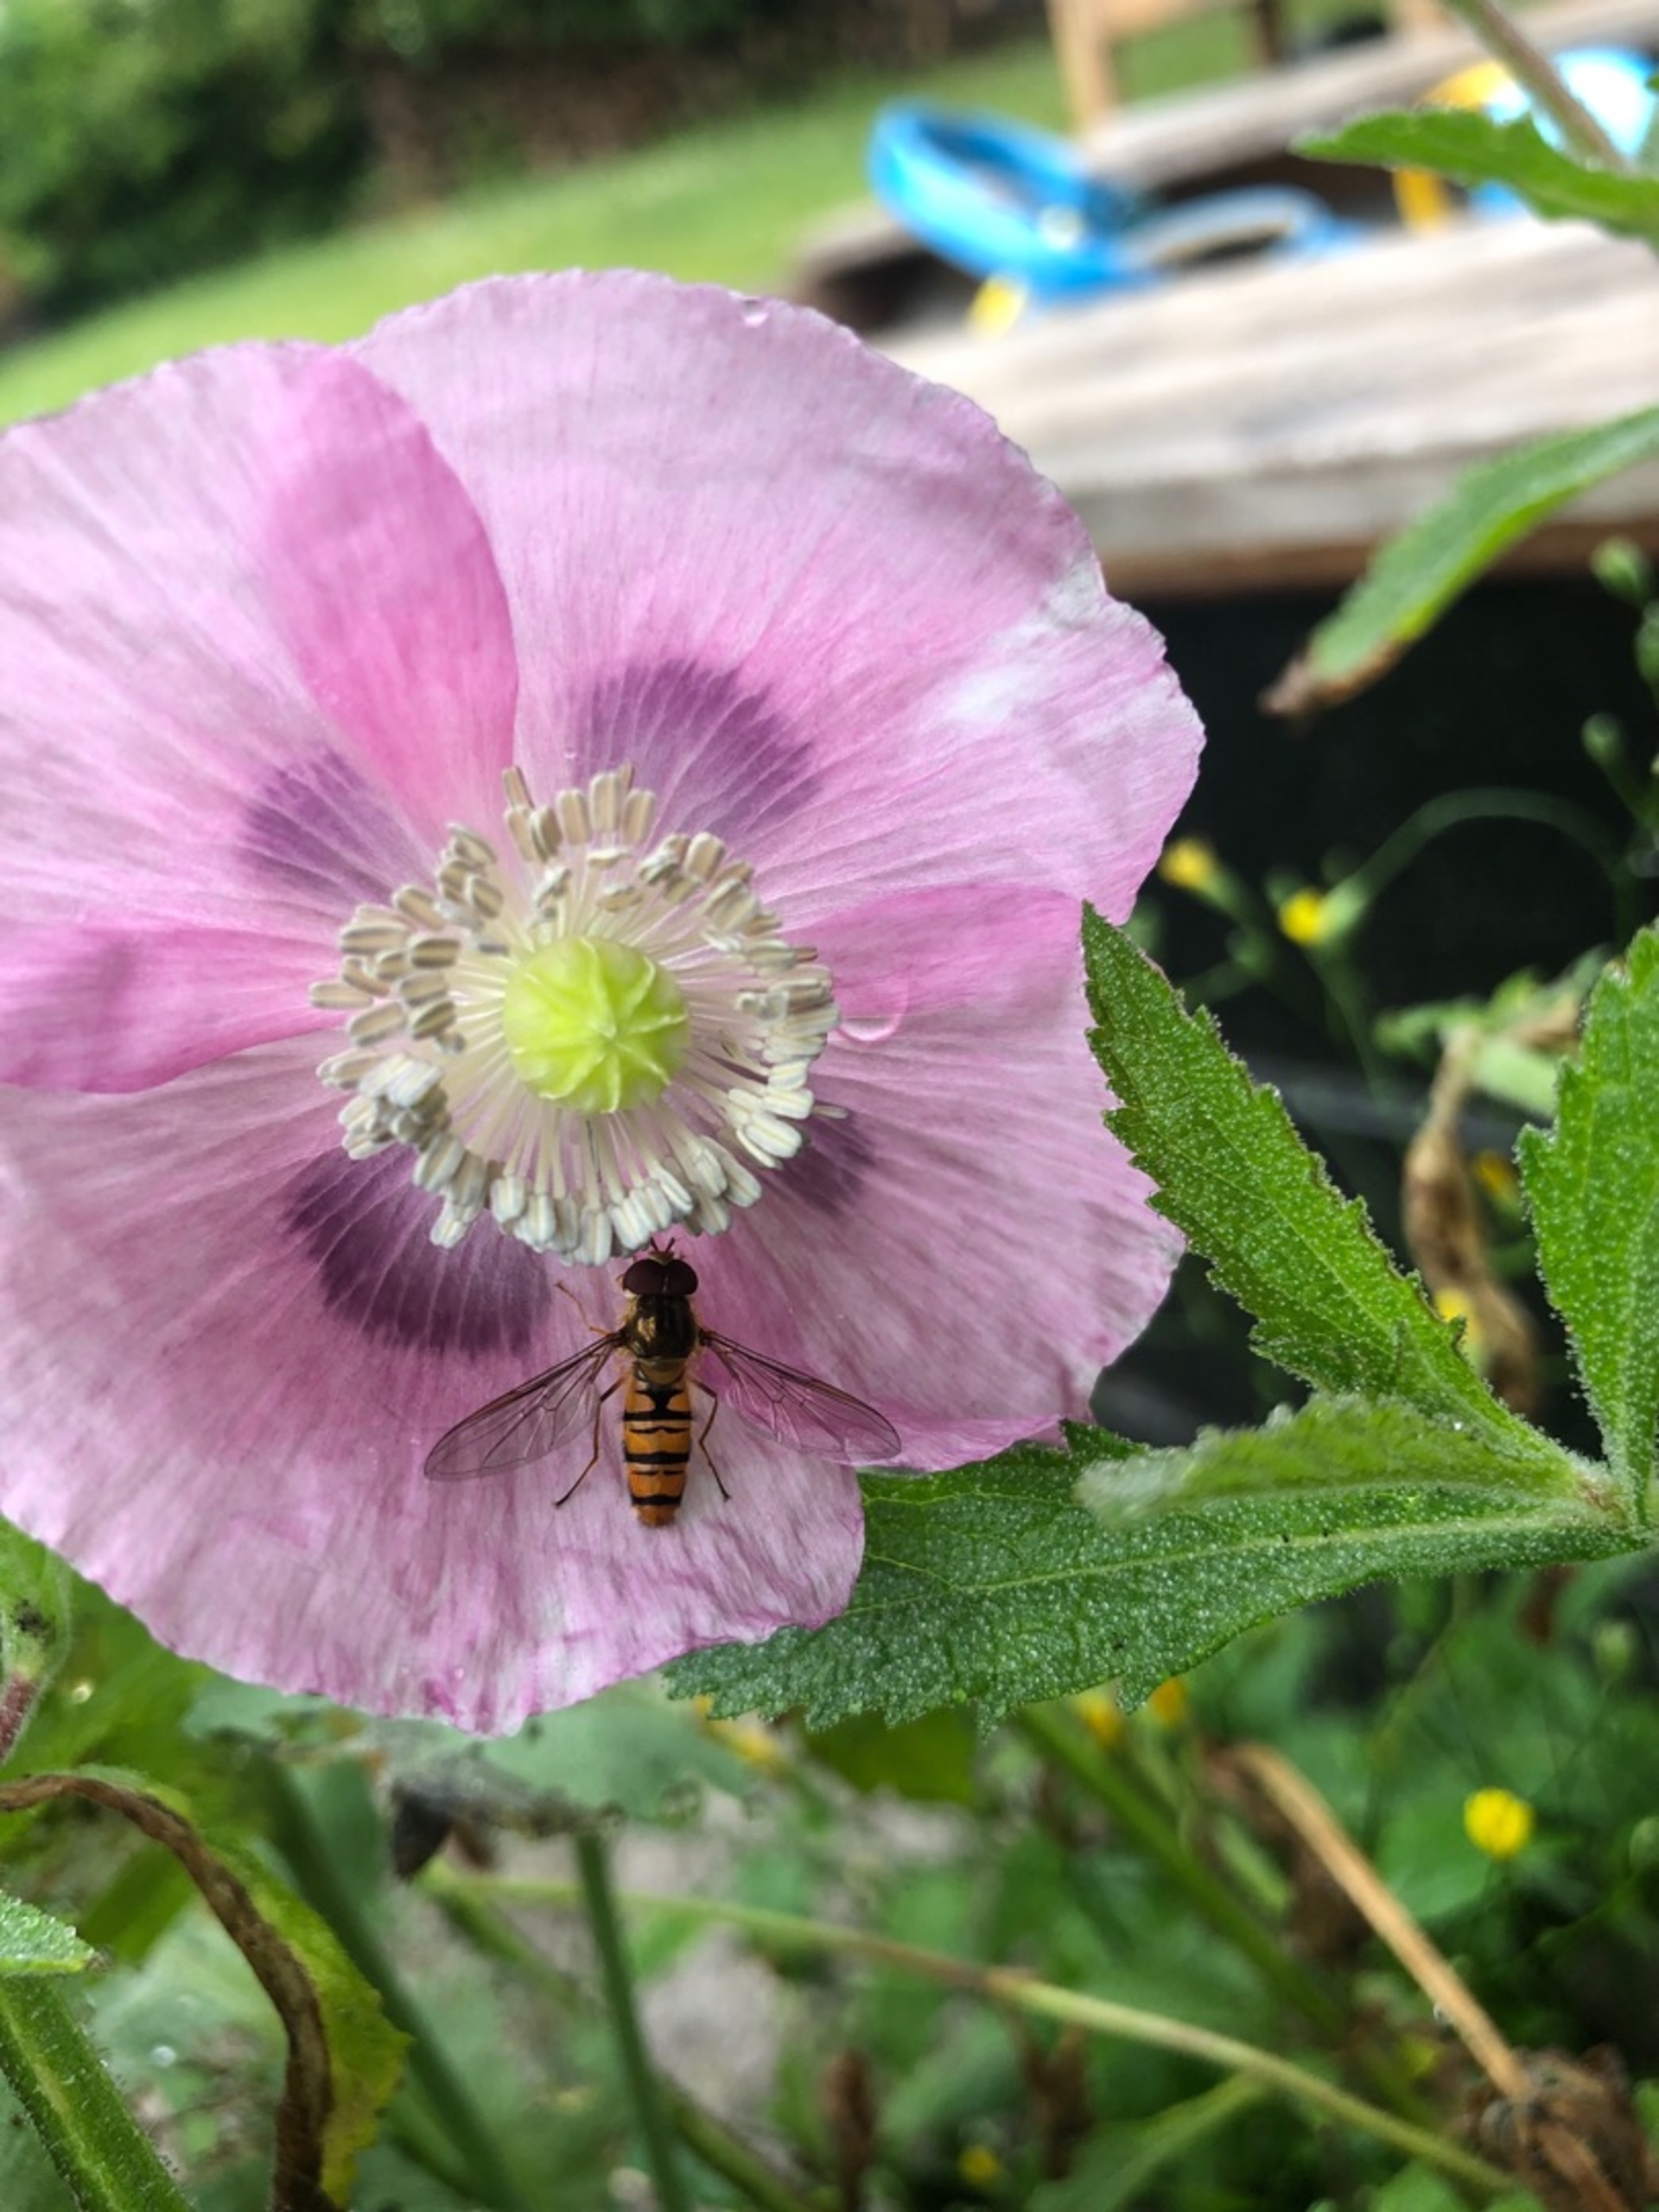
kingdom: Animalia
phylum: Arthropoda
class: Insecta
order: Diptera
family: Syrphidae
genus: Episyrphus
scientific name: Episyrphus balteatus
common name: Dobbeltbåndet svirreflue
